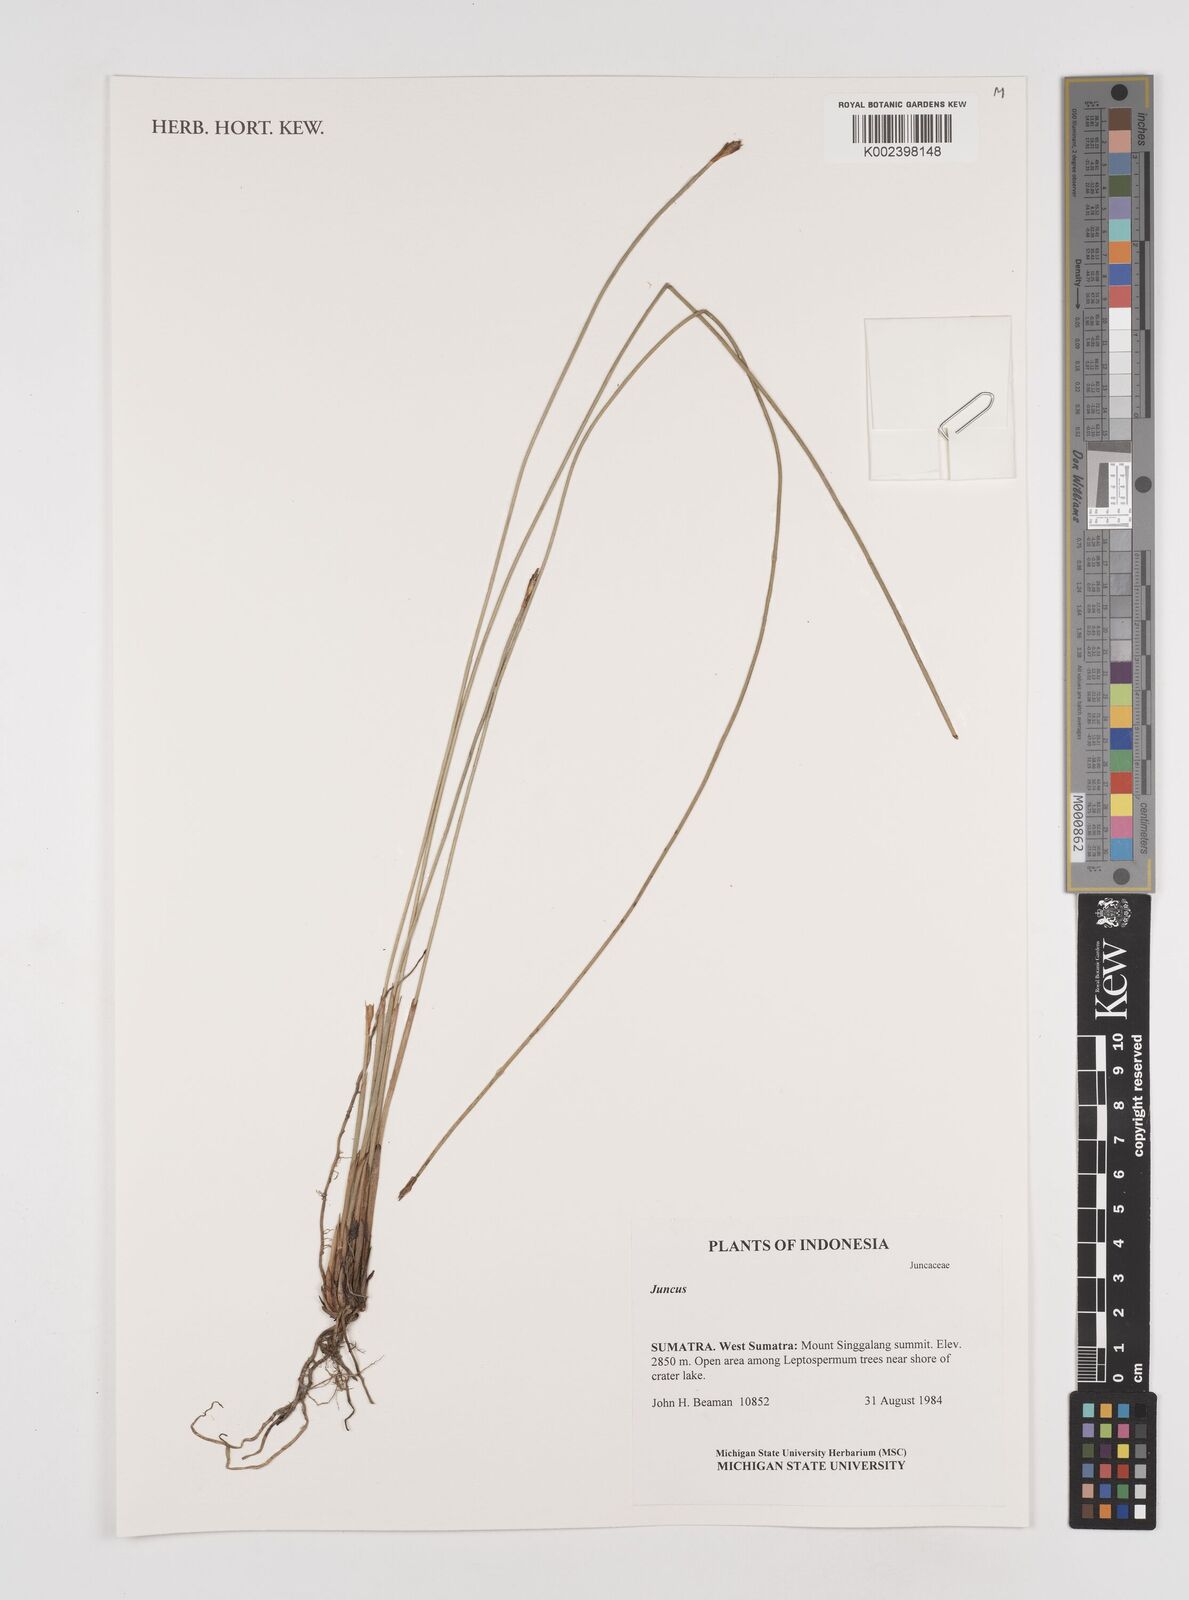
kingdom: Plantae
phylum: Tracheophyta
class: Liliopsida
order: Poales
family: Juncaceae
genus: Juncus
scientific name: Juncus
